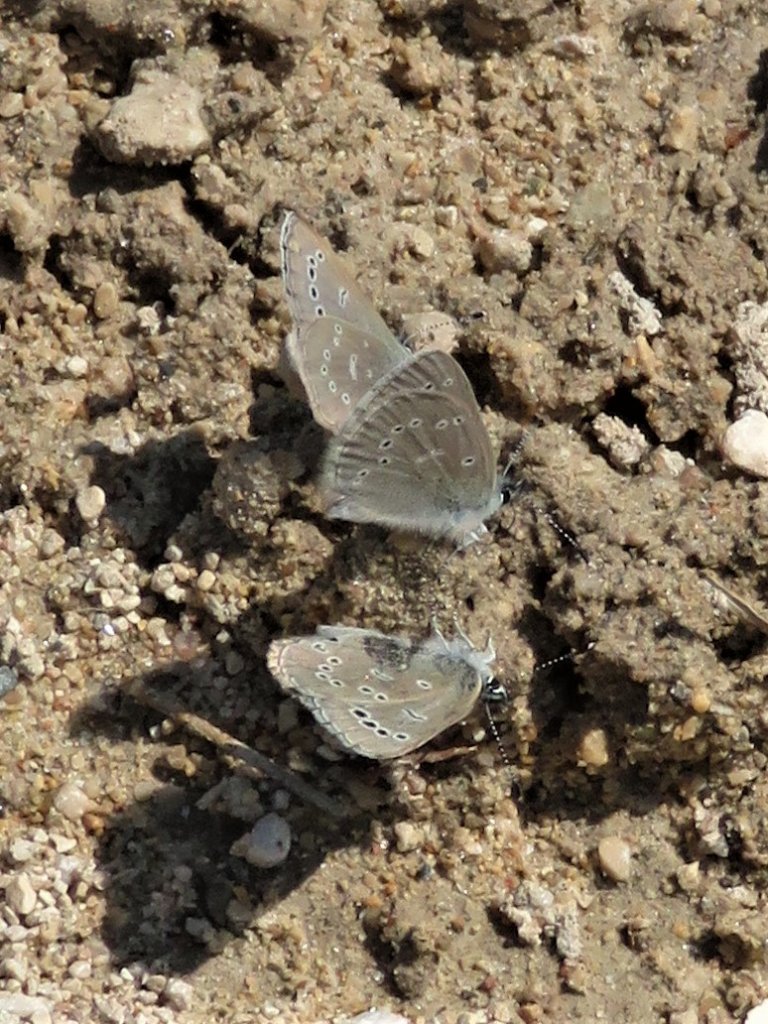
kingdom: Animalia
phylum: Arthropoda
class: Insecta
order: Lepidoptera
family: Lycaenidae
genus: Glaucopsyche
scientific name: Glaucopsyche lygdamus
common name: Silvery Blue
